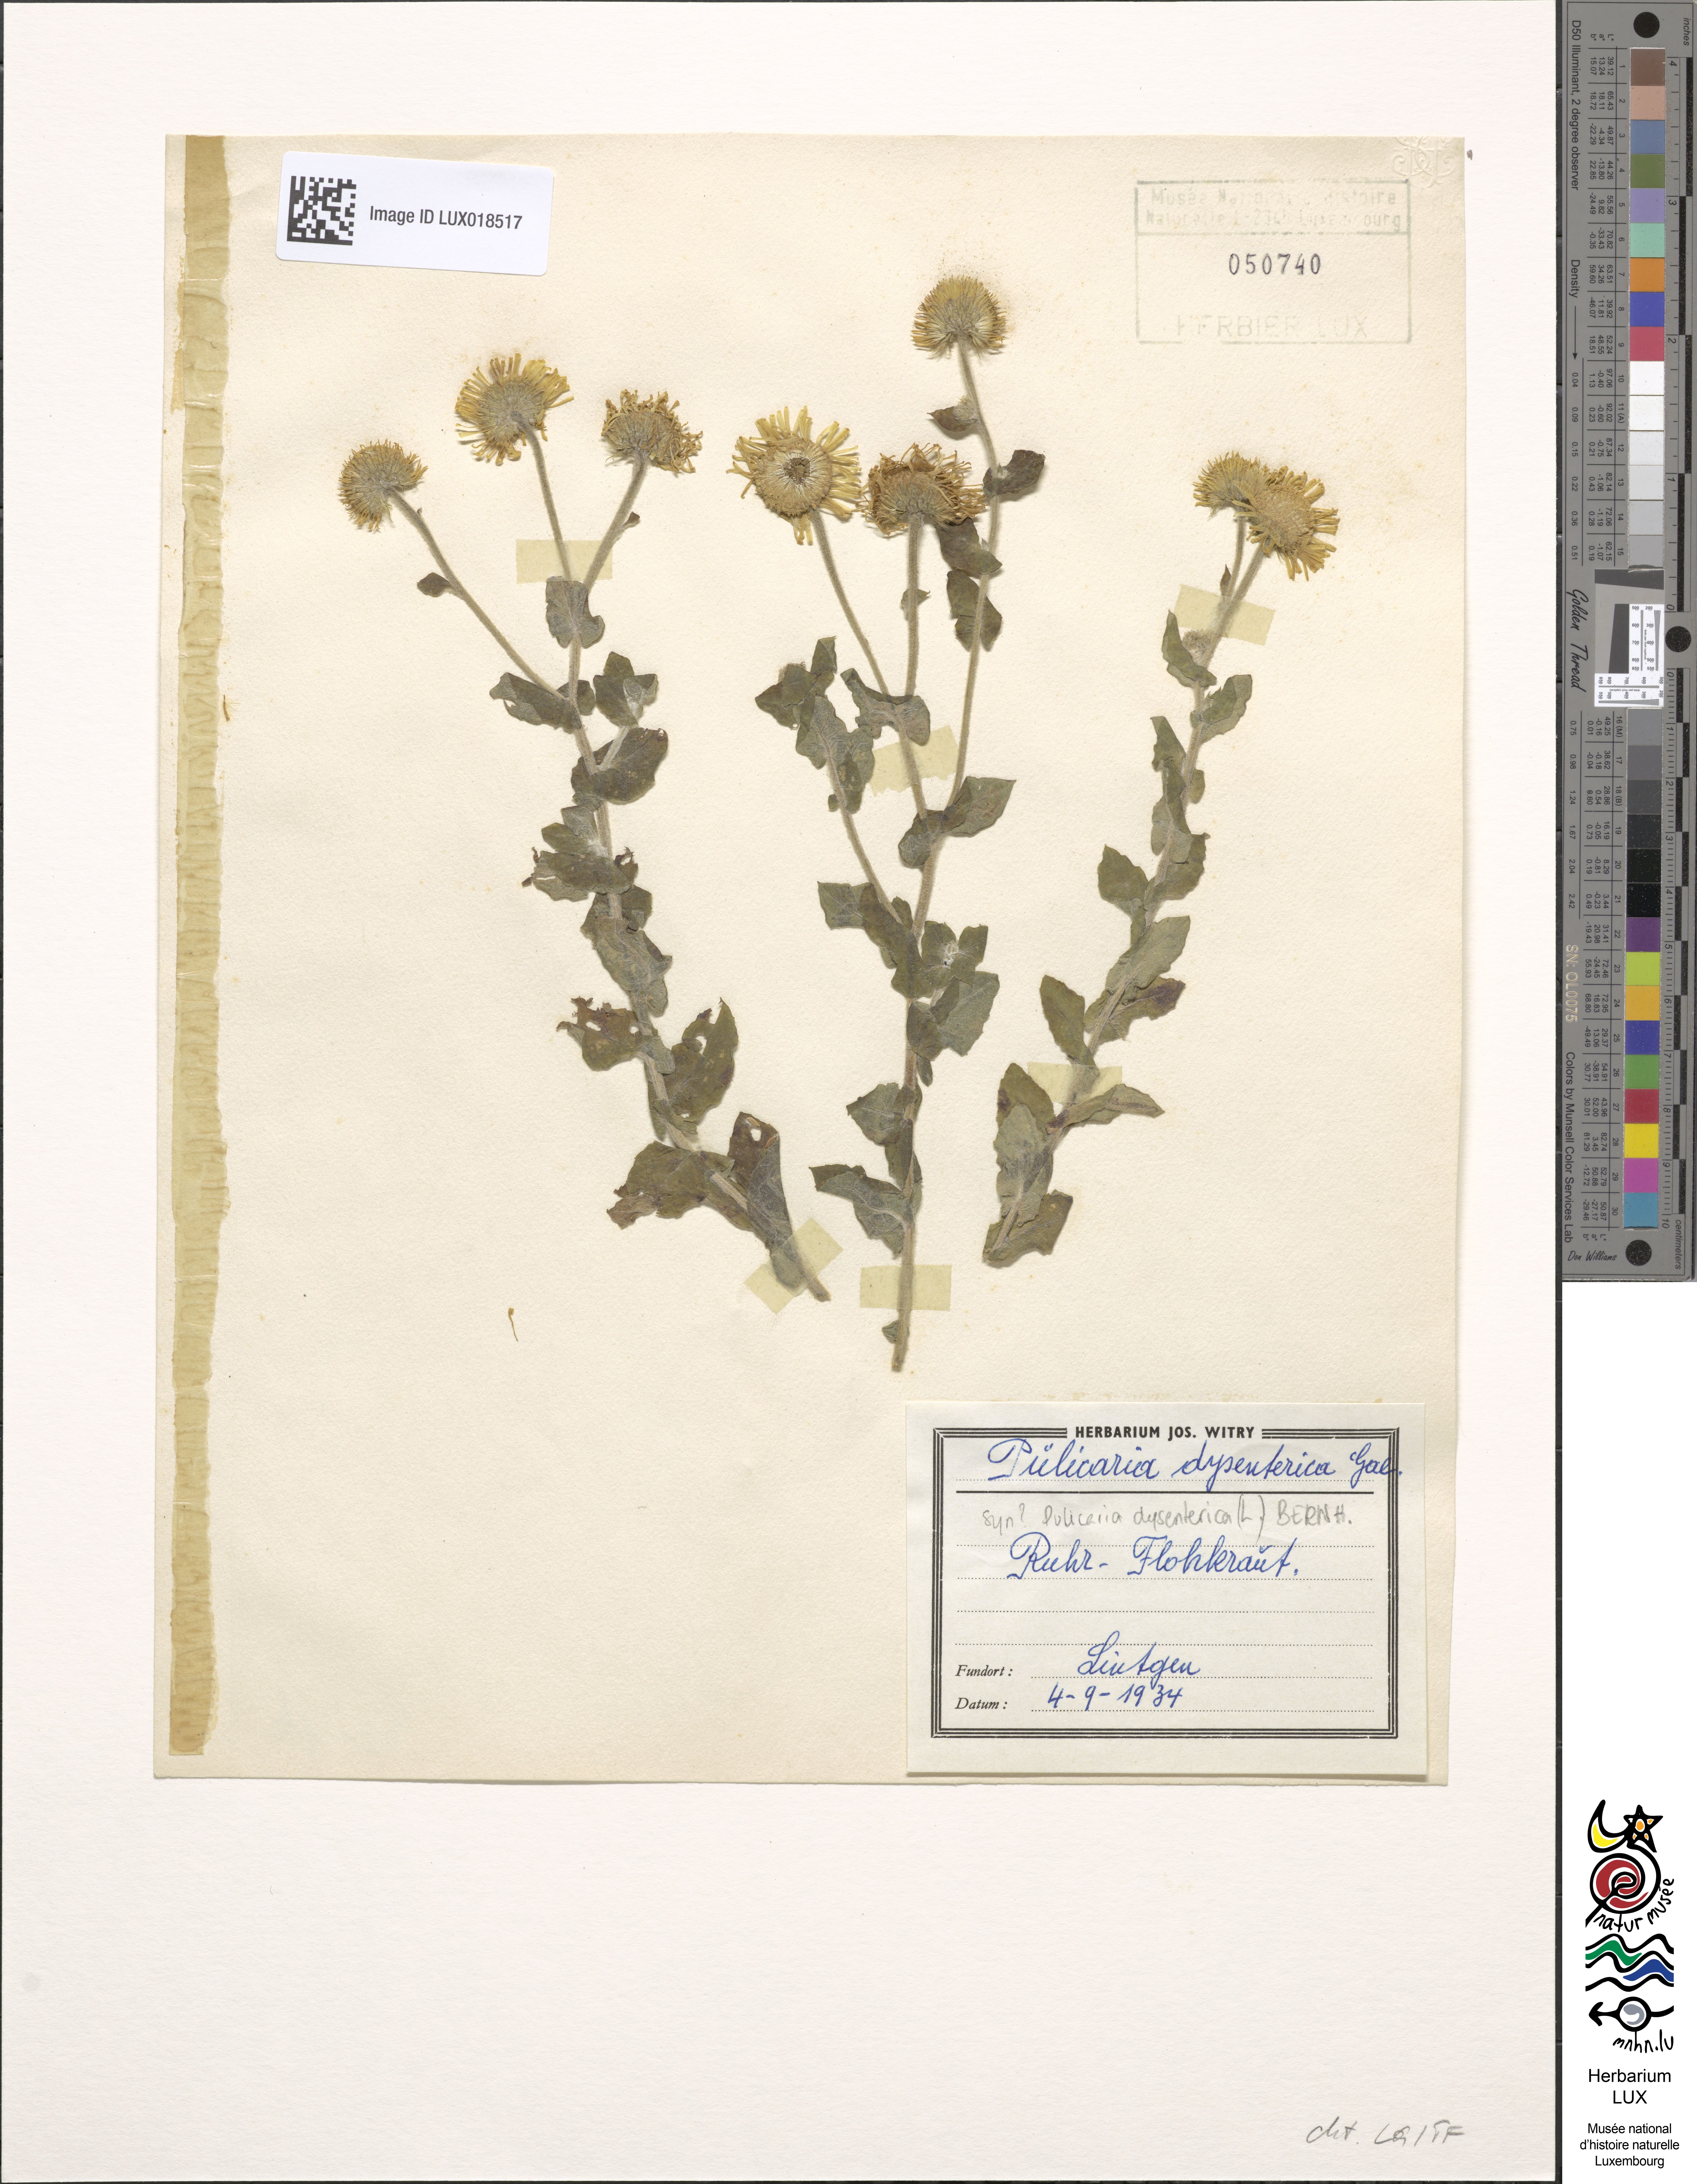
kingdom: Plantae
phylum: Tracheophyta
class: Magnoliopsida
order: Asterales
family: Asteraceae
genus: Pulicaria
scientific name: Pulicaria dysenterica
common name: Common fleabane
